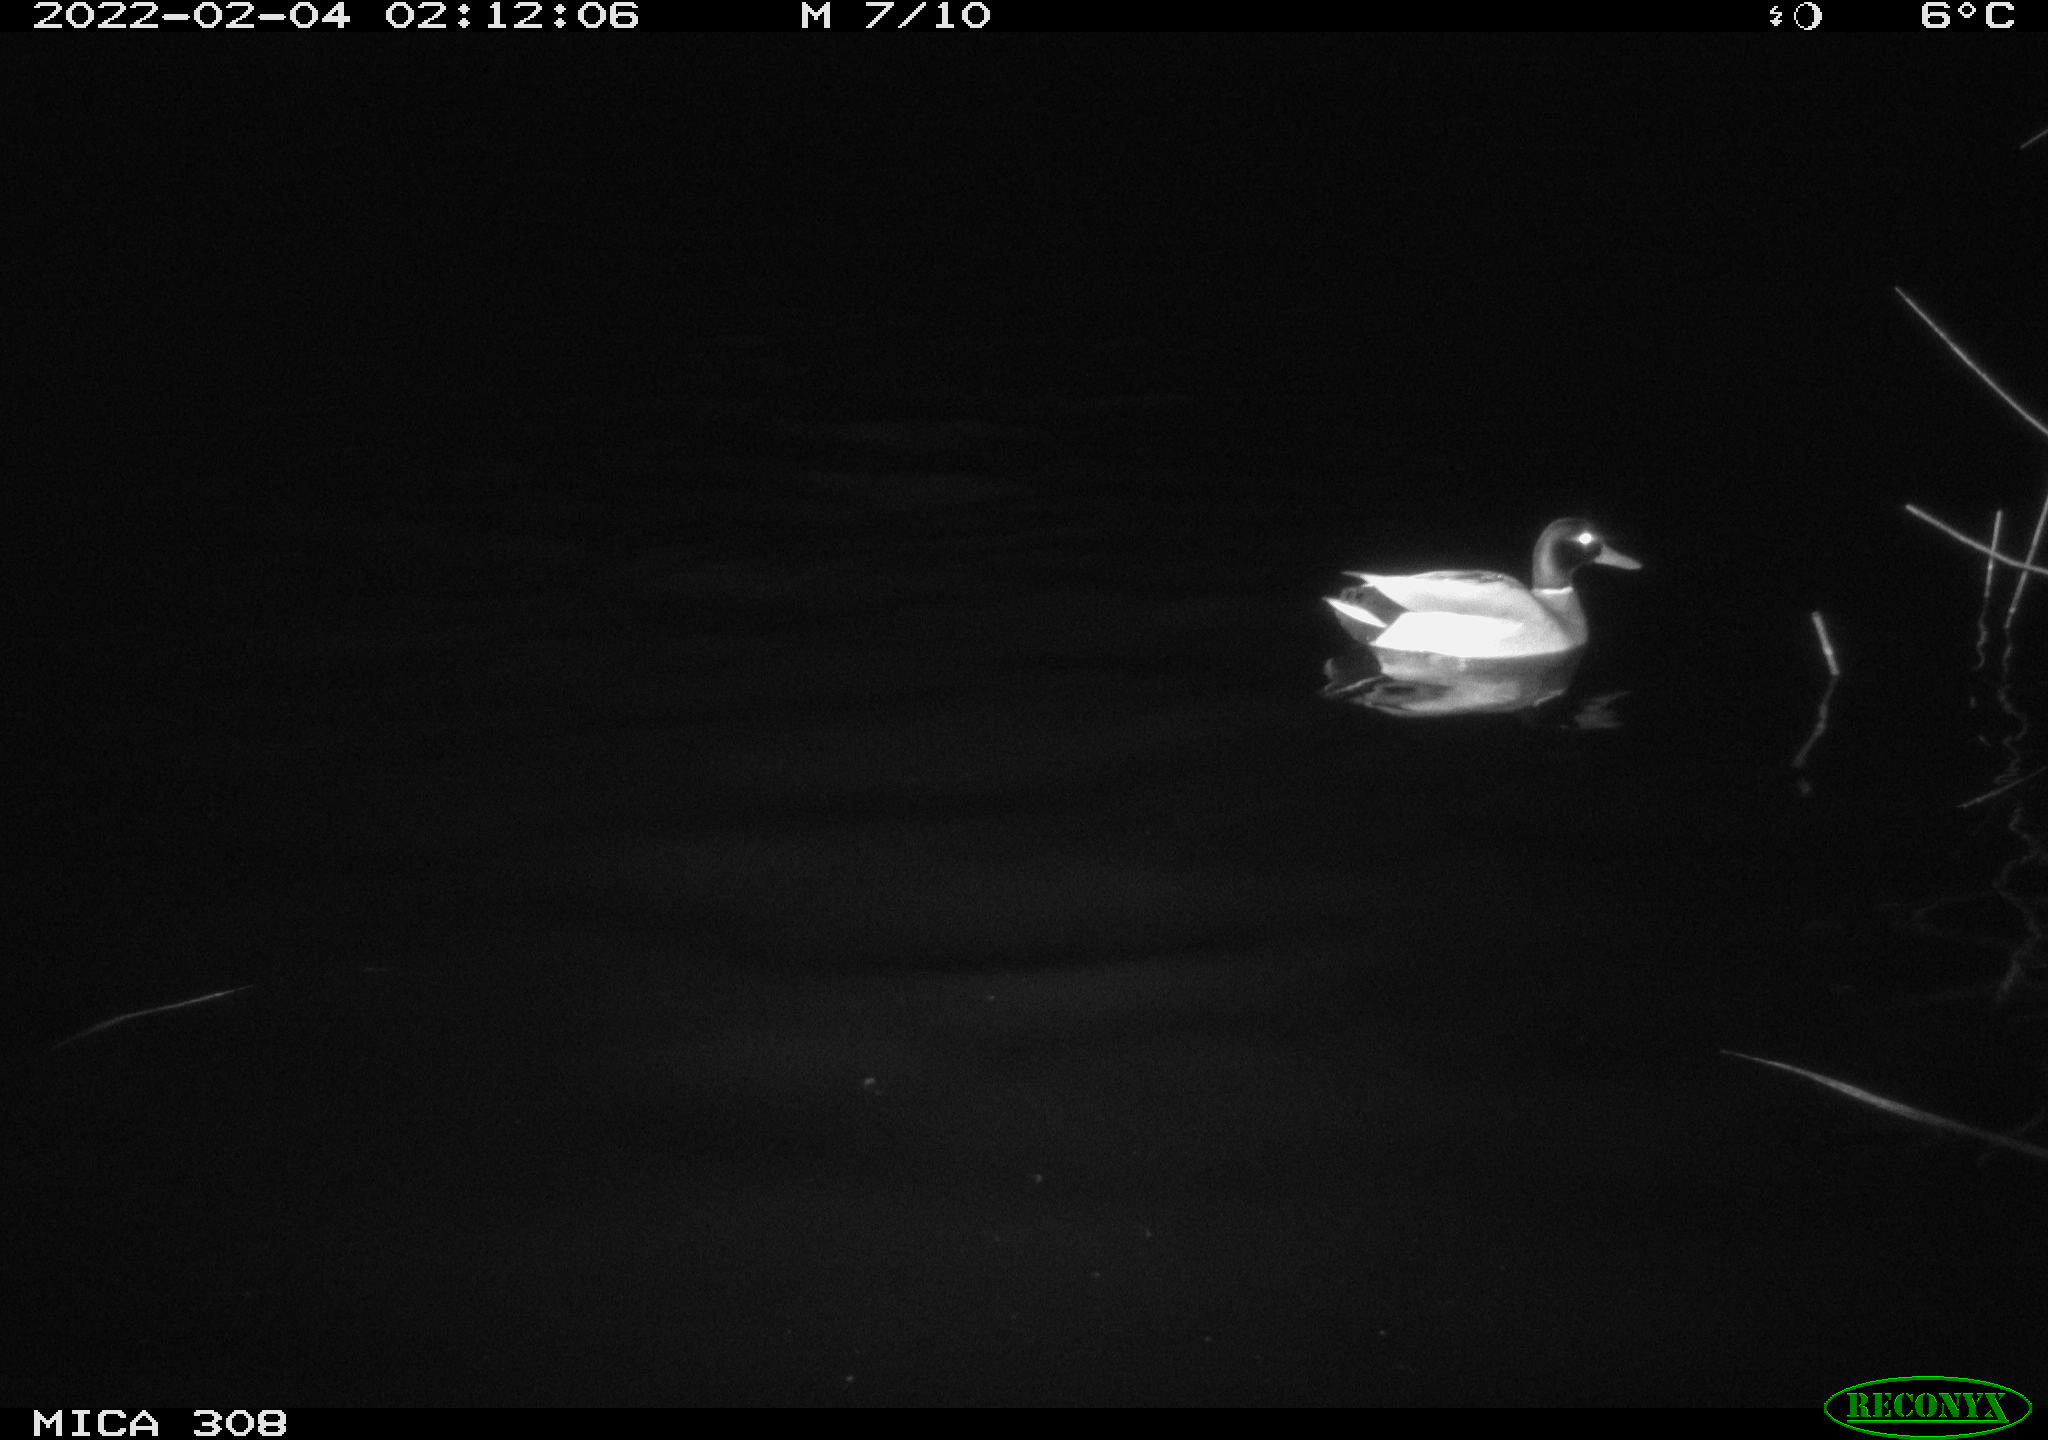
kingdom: Animalia
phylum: Chordata
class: Aves
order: Anseriformes
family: Anatidae
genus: Anas
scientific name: Anas platyrhynchos
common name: Mallard
